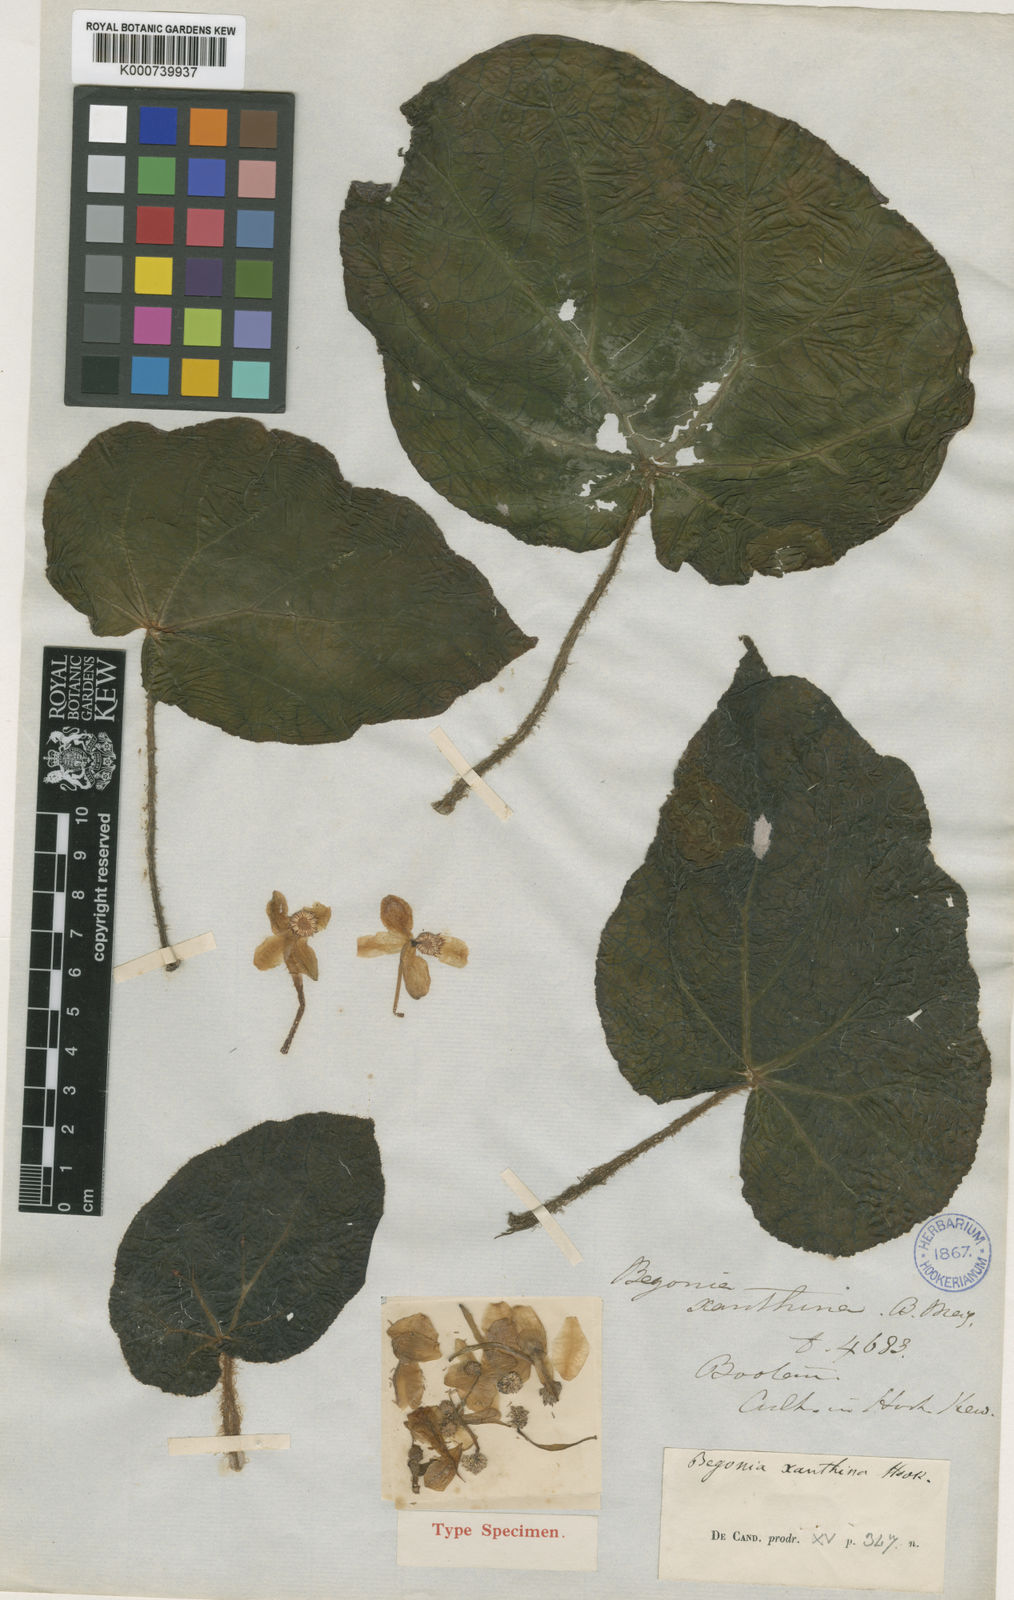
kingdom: Plantae
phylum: Tracheophyta
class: Magnoliopsida
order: Cucurbitales
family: Begoniaceae
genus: Begonia
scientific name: Begonia xanthina
